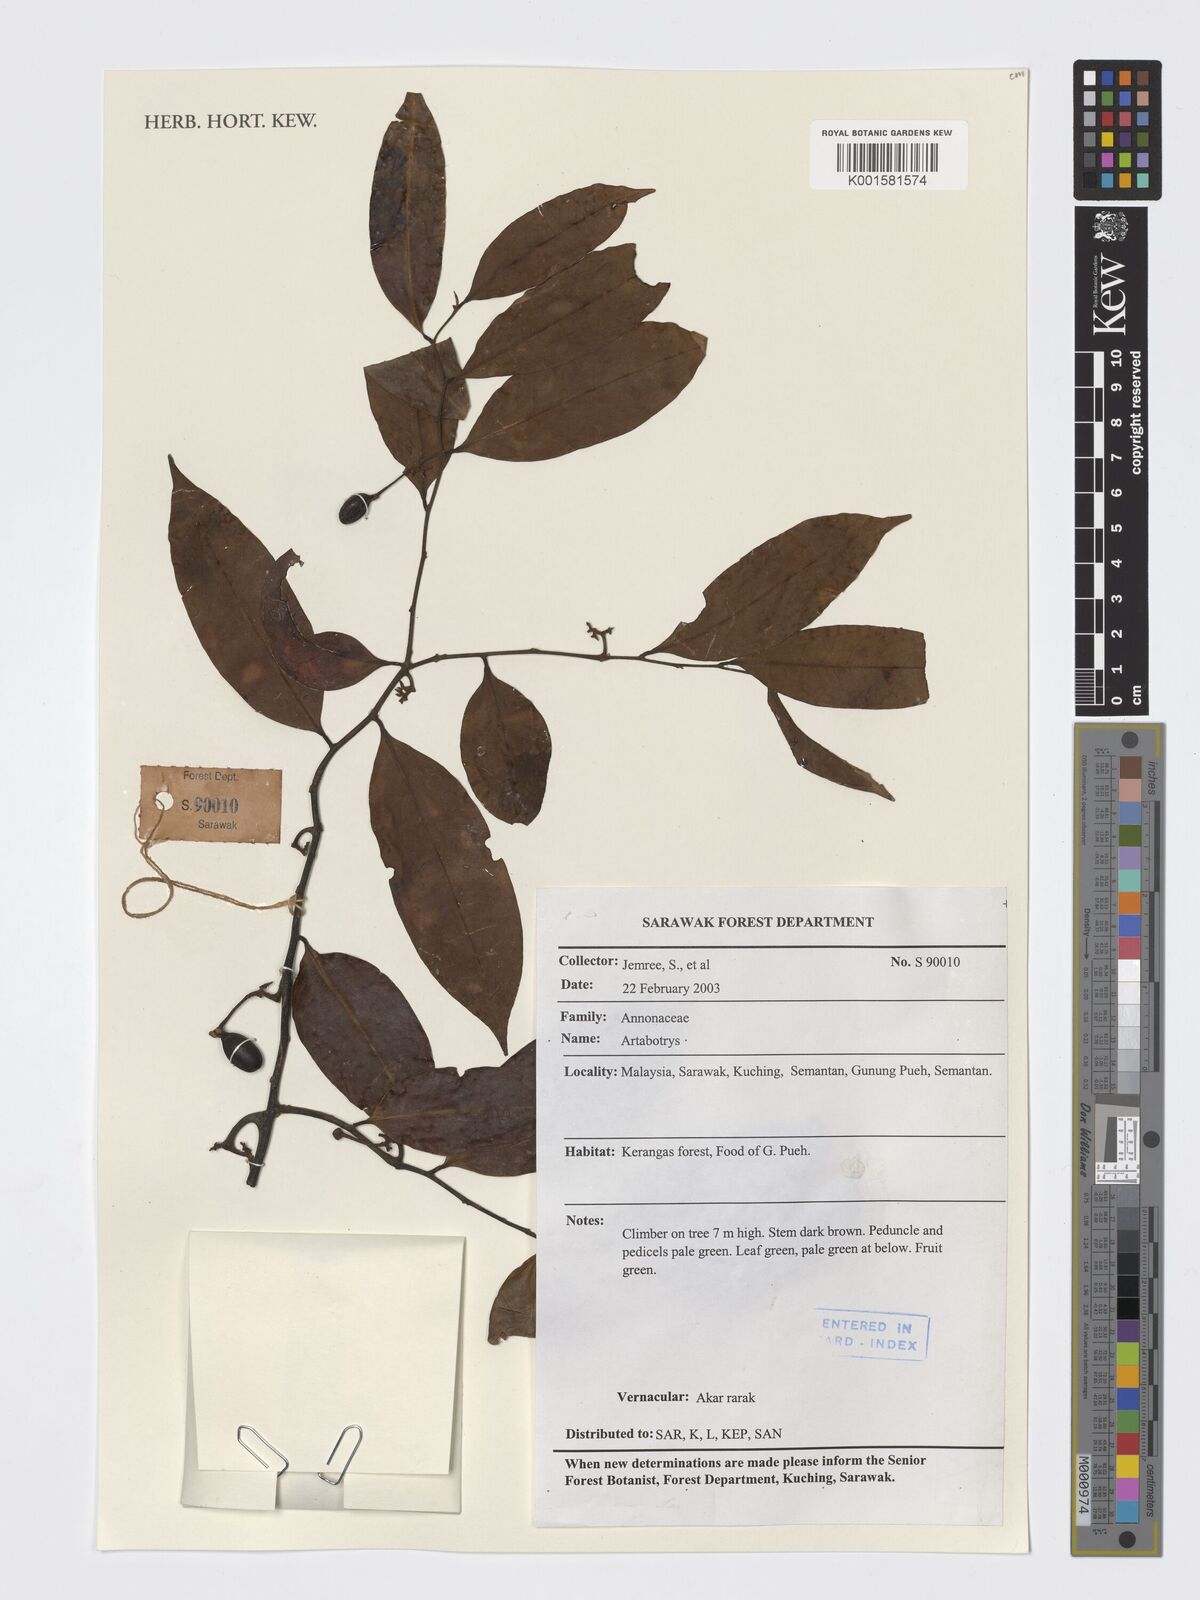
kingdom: Plantae
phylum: Tracheophyta
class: Magnoliopsida
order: Magnoliales
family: Annonaceae
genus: Artabotrys
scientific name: Artabotrys
